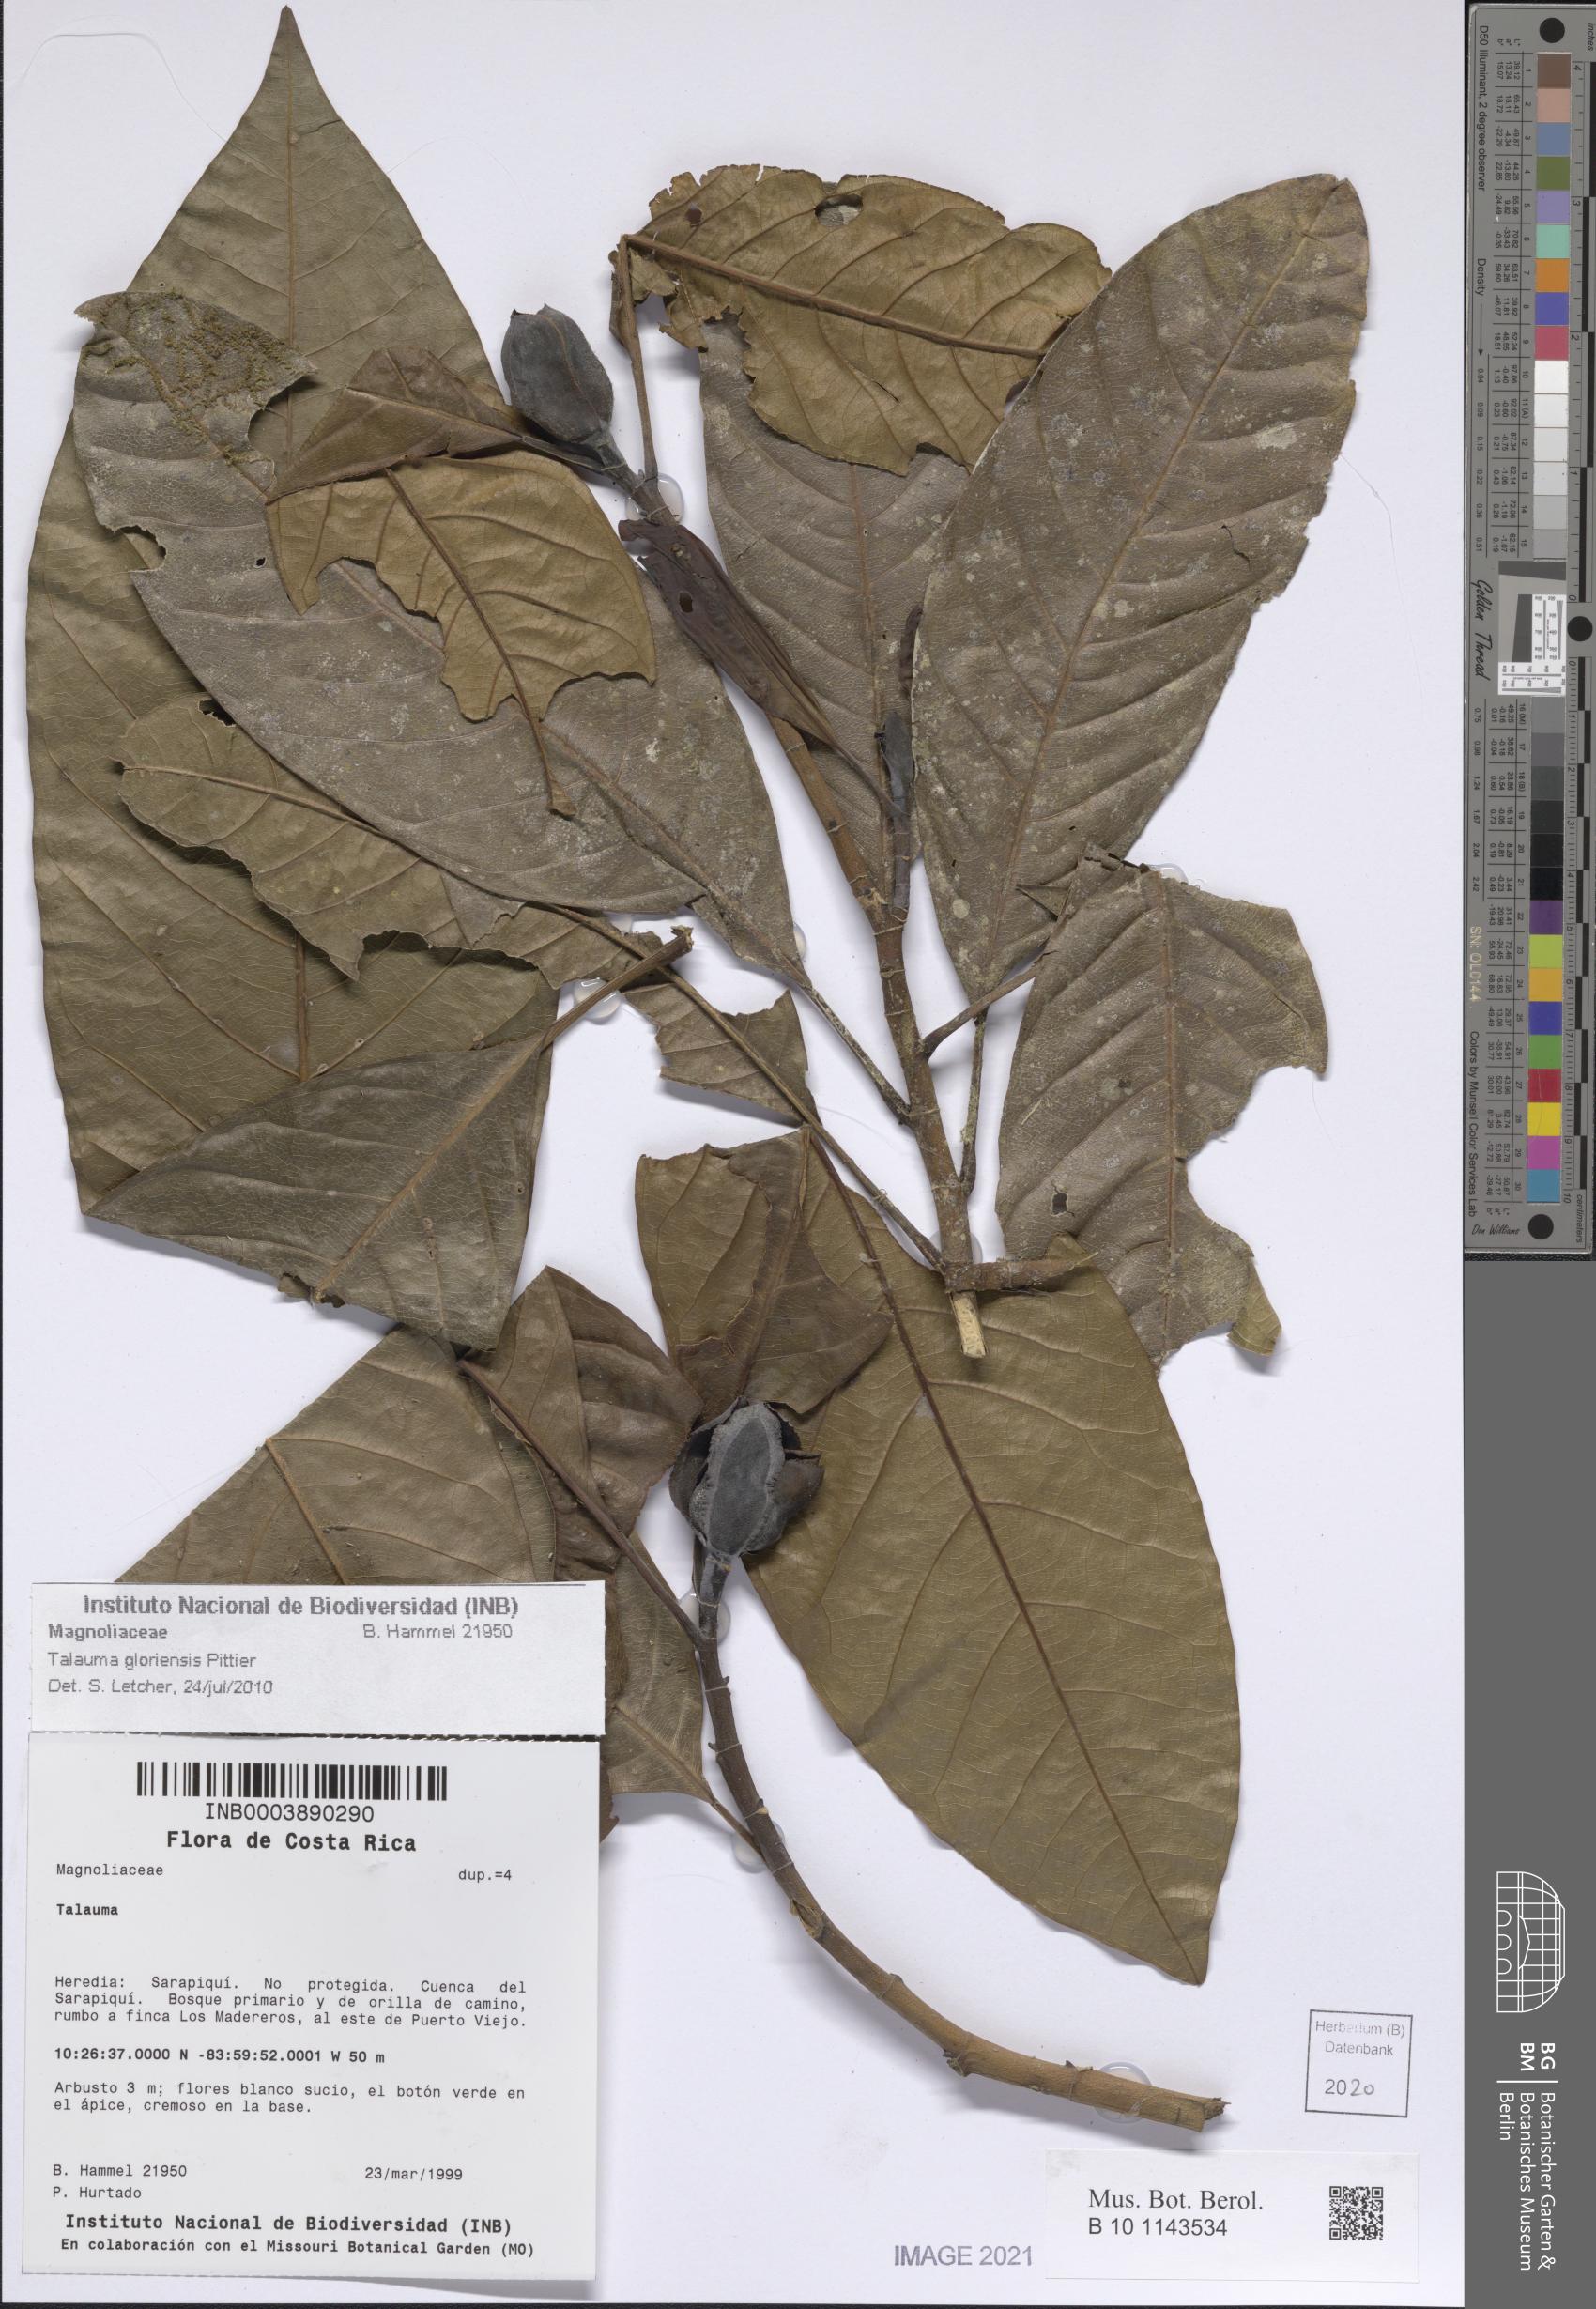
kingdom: Plantae
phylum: Tracheophyta
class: Magnoliopsida
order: Magnoliales
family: Magnoliaceae
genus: Magnolia
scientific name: Magnolia gloriensis
